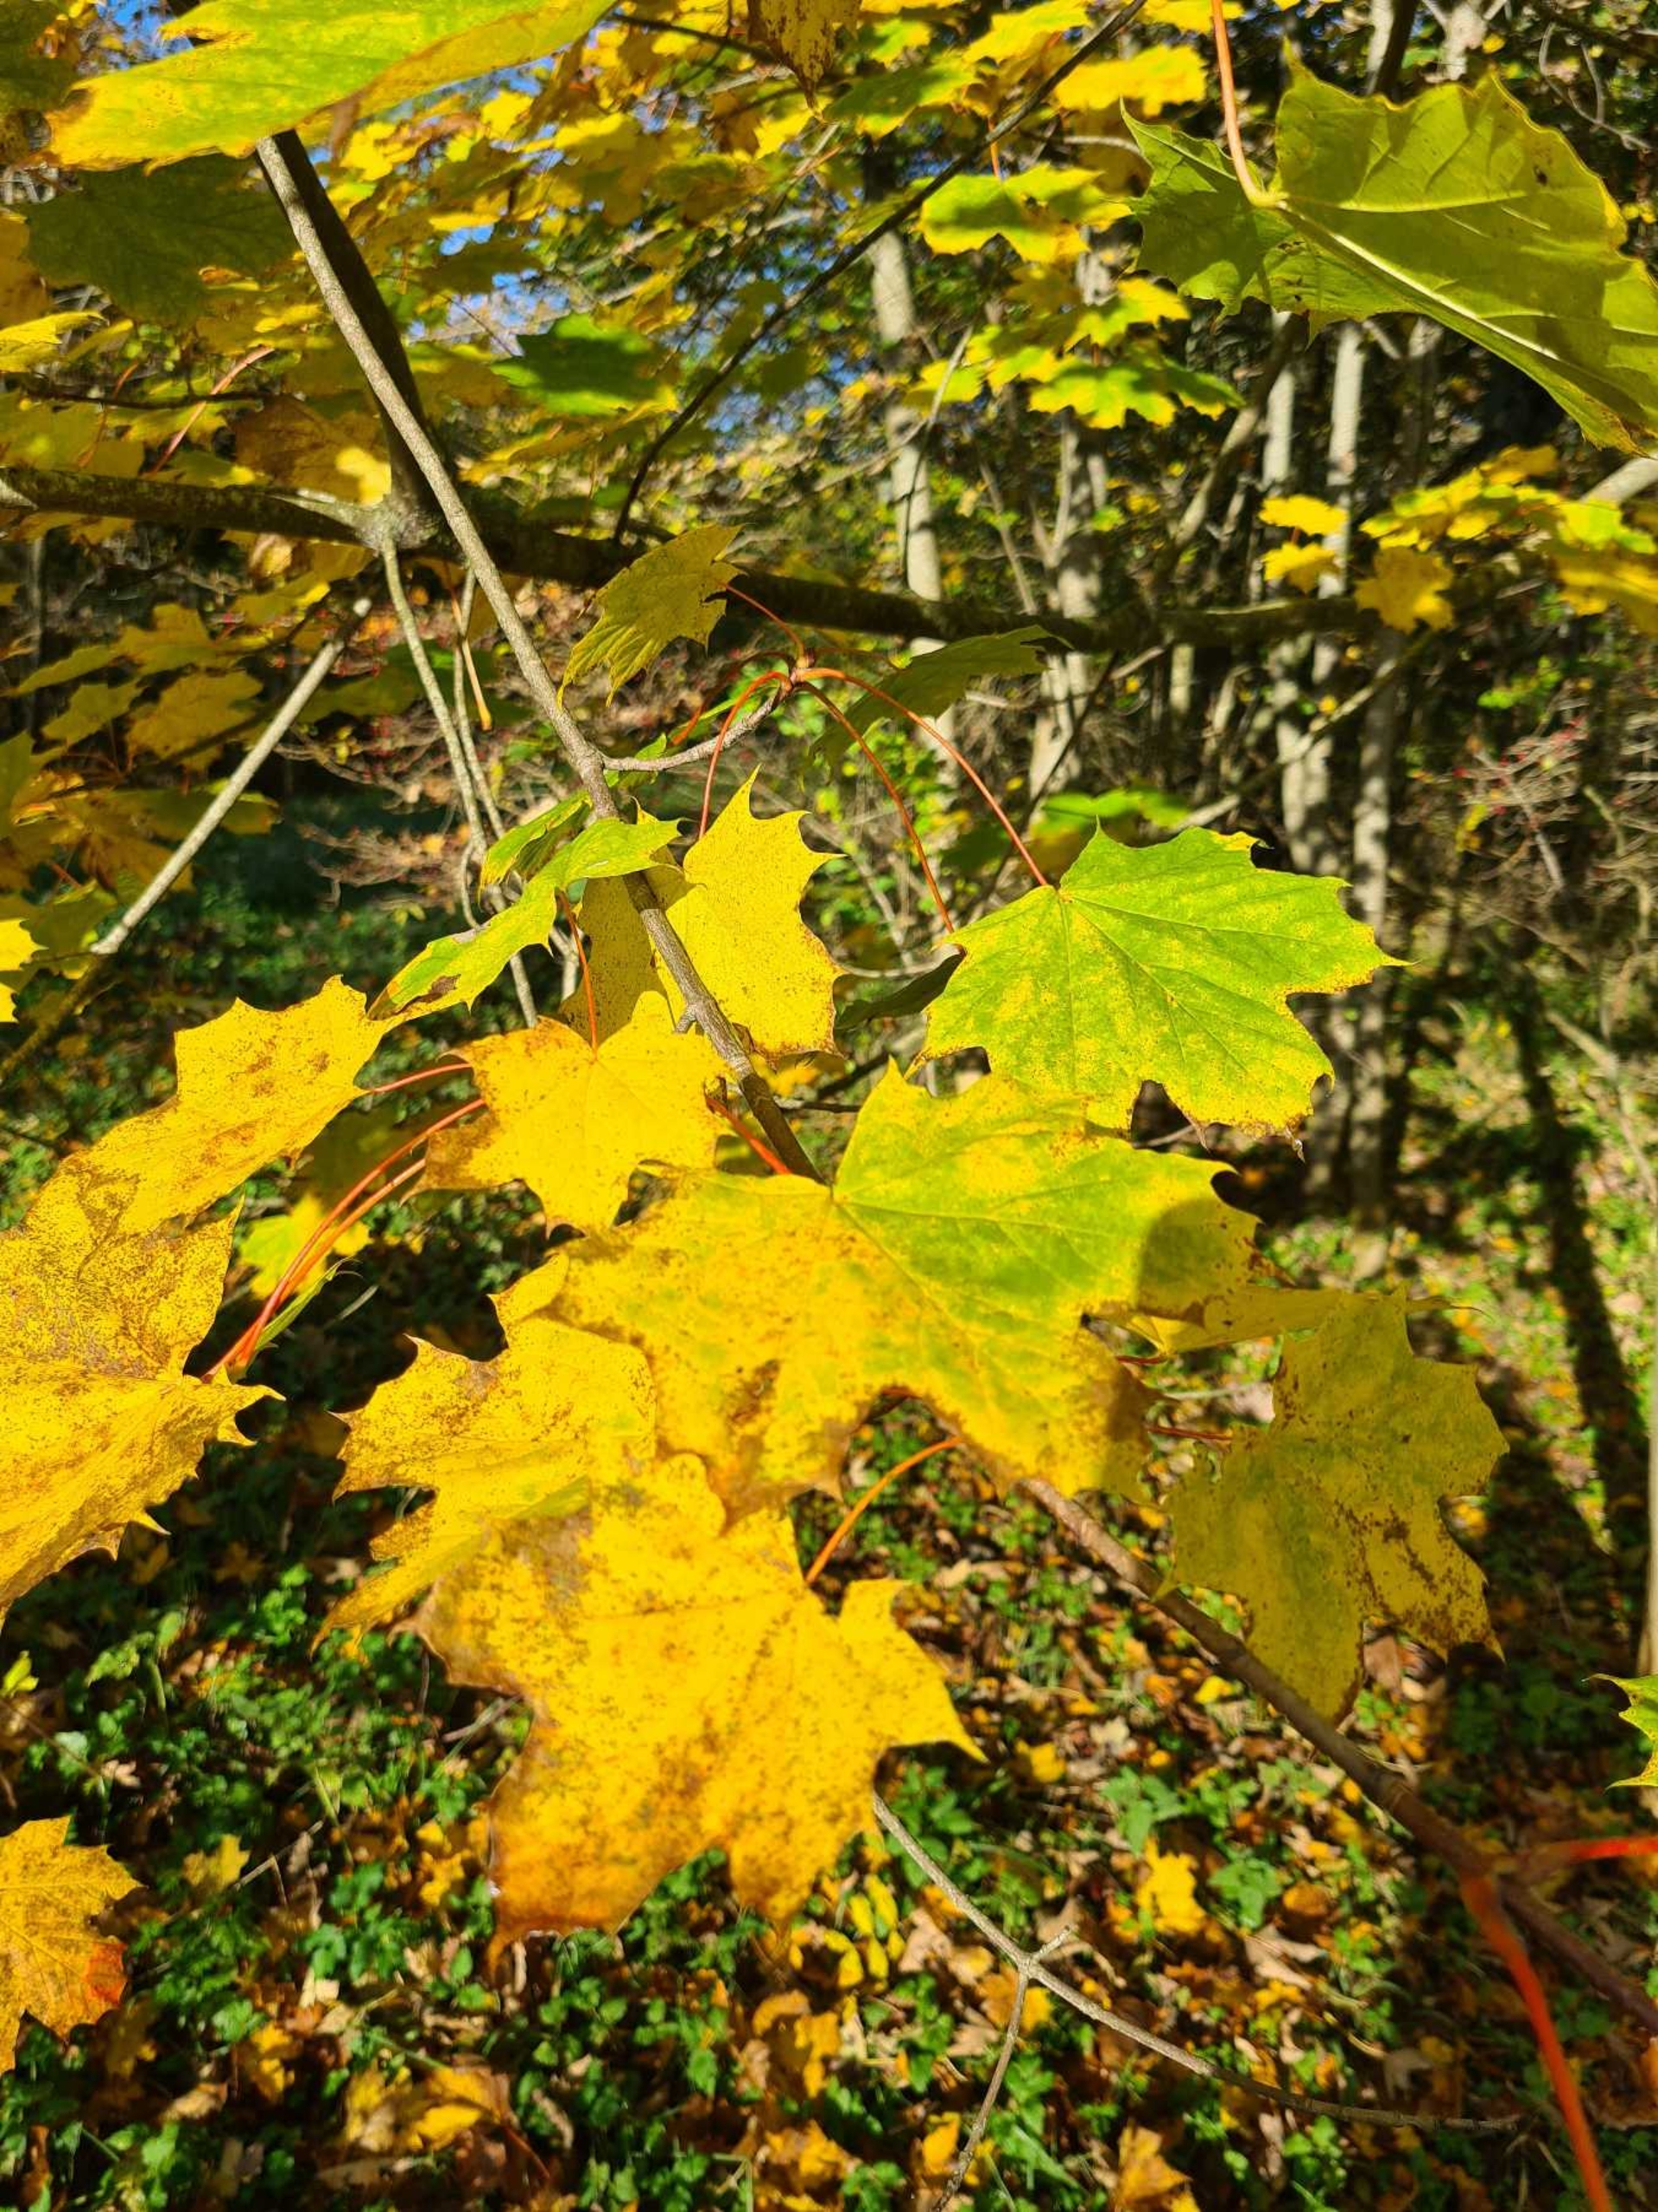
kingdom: Plantae
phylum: Tracheophyta
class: Magnoliopsida
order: Sapindales
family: Sapindaceae
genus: Acer
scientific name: Acer platanoides
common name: Spids-løn
